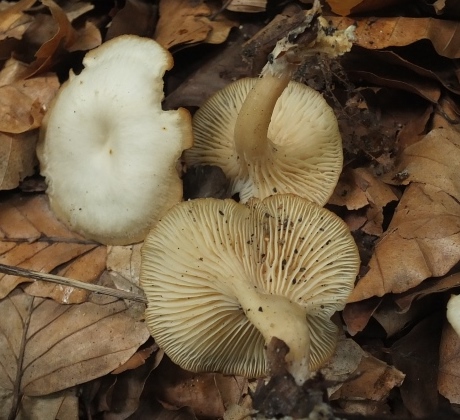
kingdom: Fungi
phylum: Basidiomycota
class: Agaricomycetes
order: Agaricales
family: Tricholomataceae
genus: Clitocybe
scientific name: Clitocybe phaeophthalma
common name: stinkende tragthat
